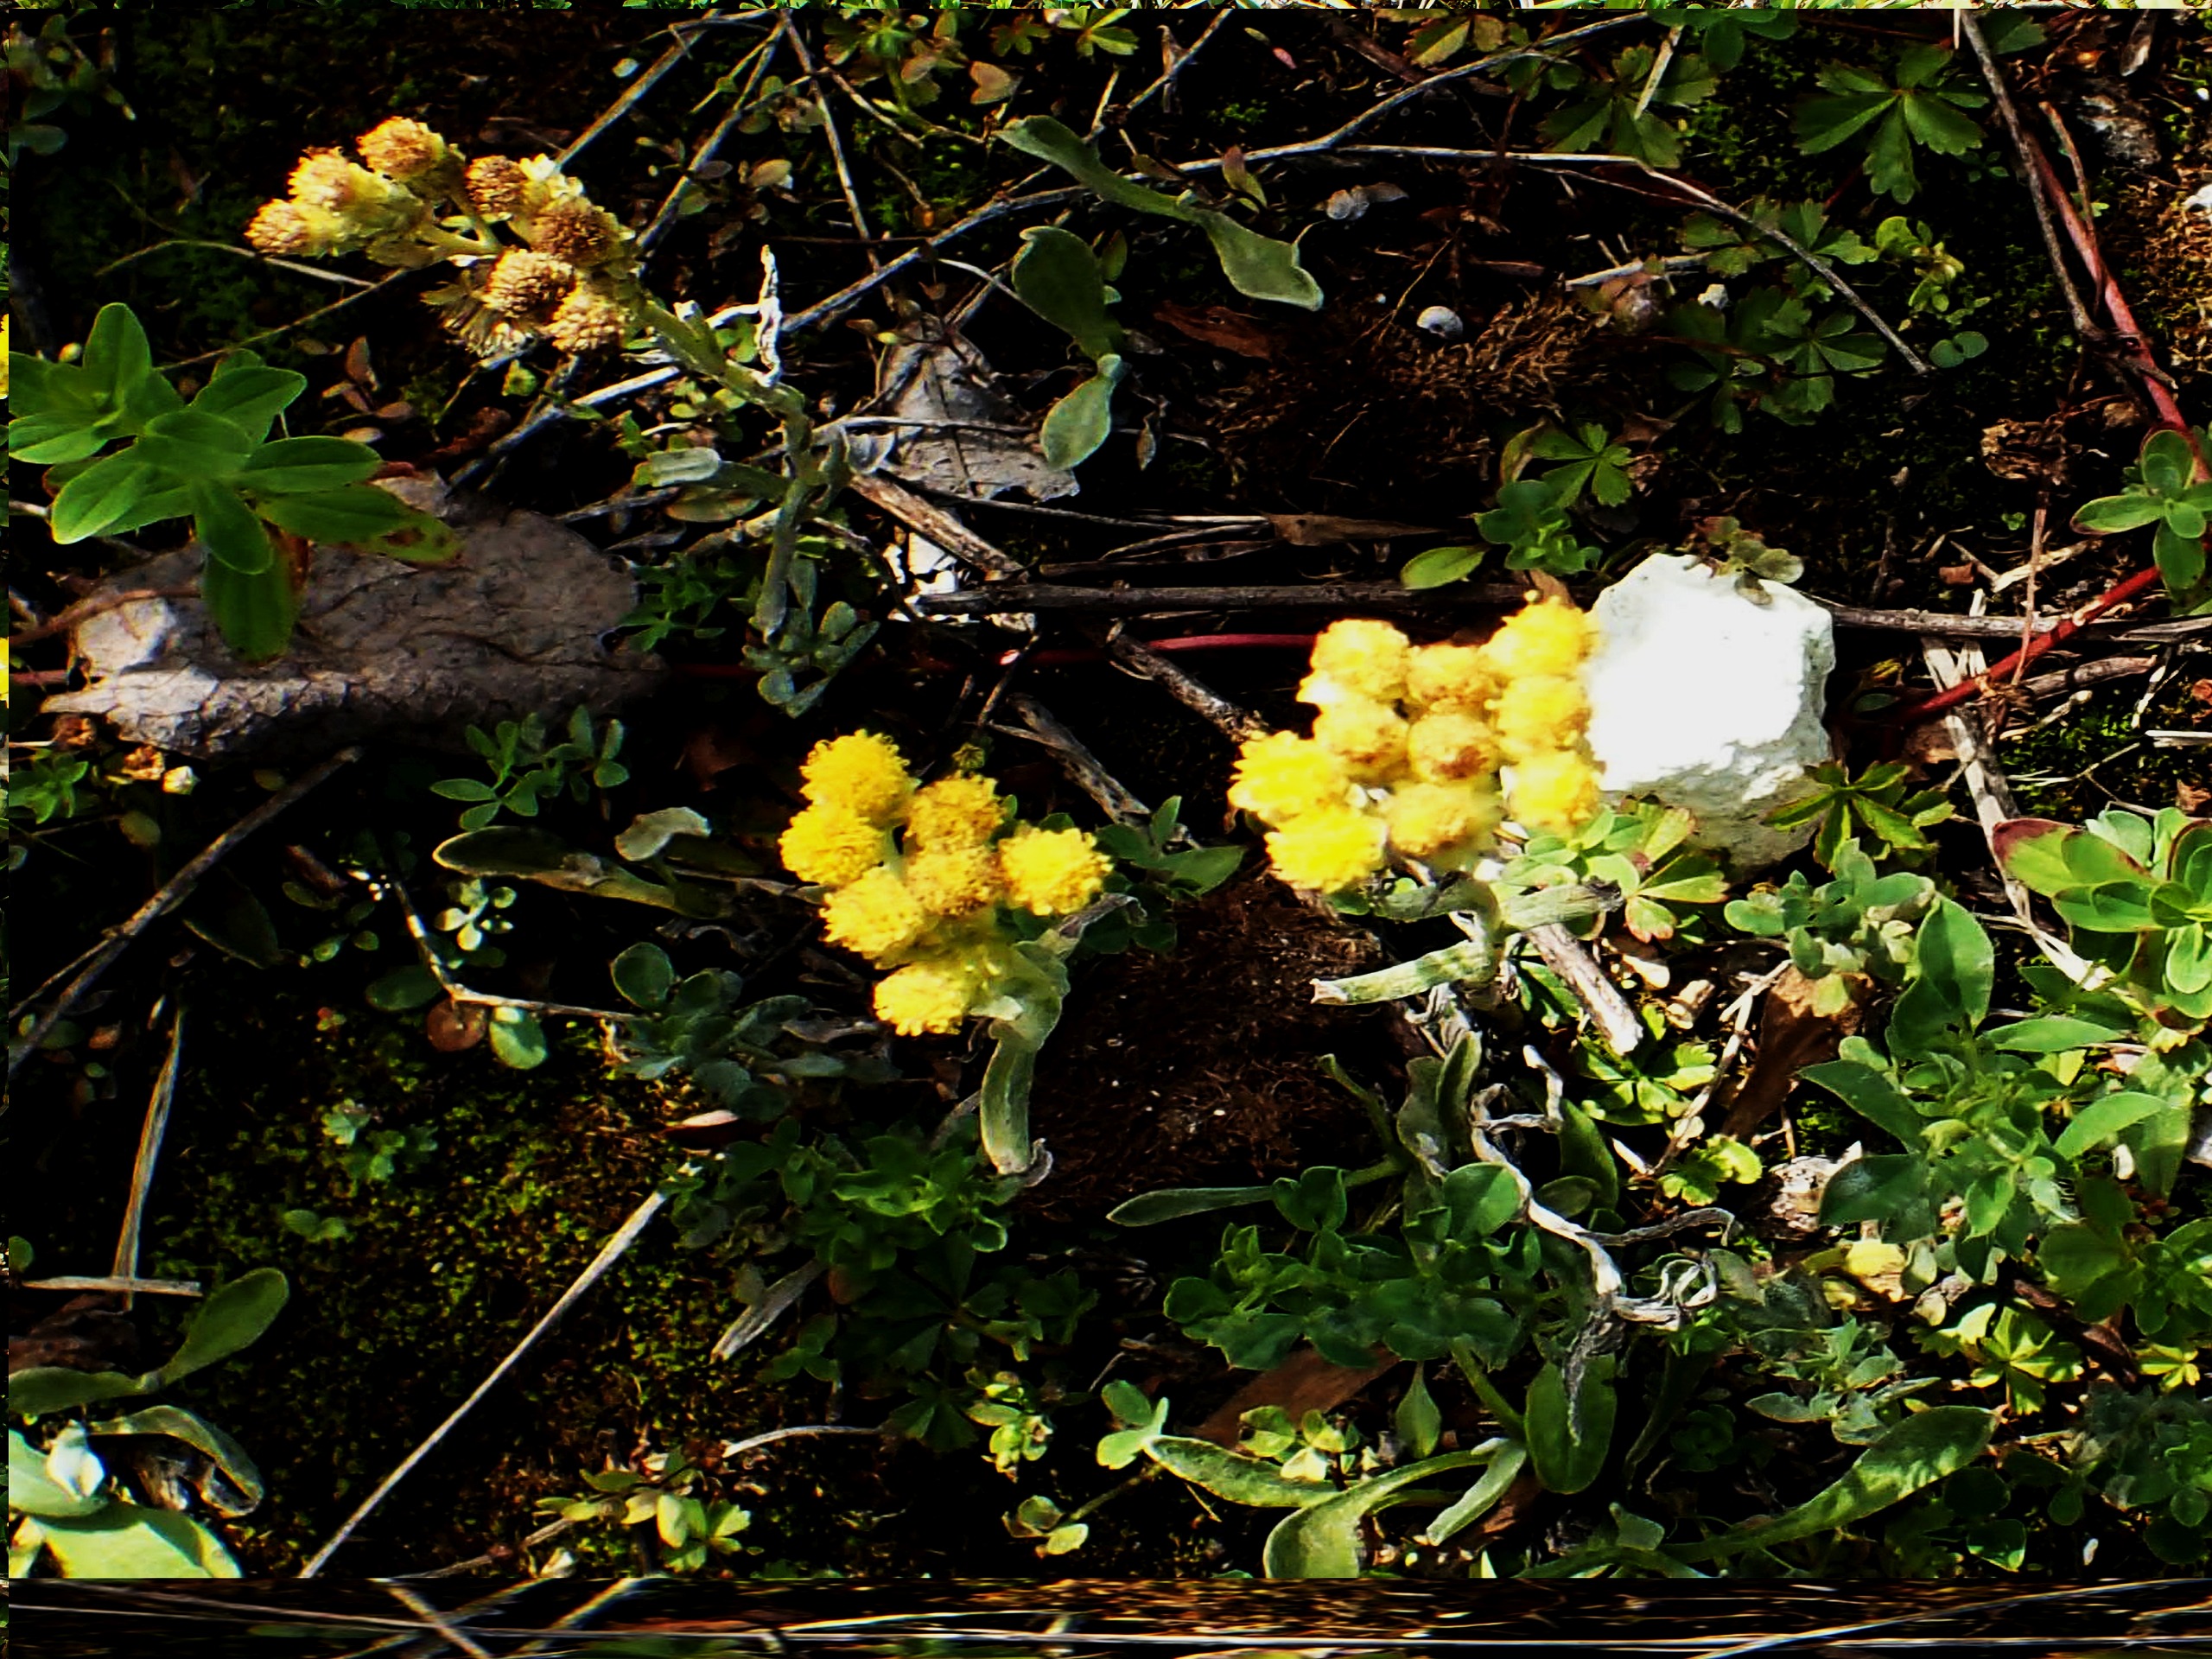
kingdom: Plantae
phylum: Tracheophyta
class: Magnoliopsida
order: Asterales
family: Asteraceae
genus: Helichrysum
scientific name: Helichrysum arenarium
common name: Gul evighedsblomst
